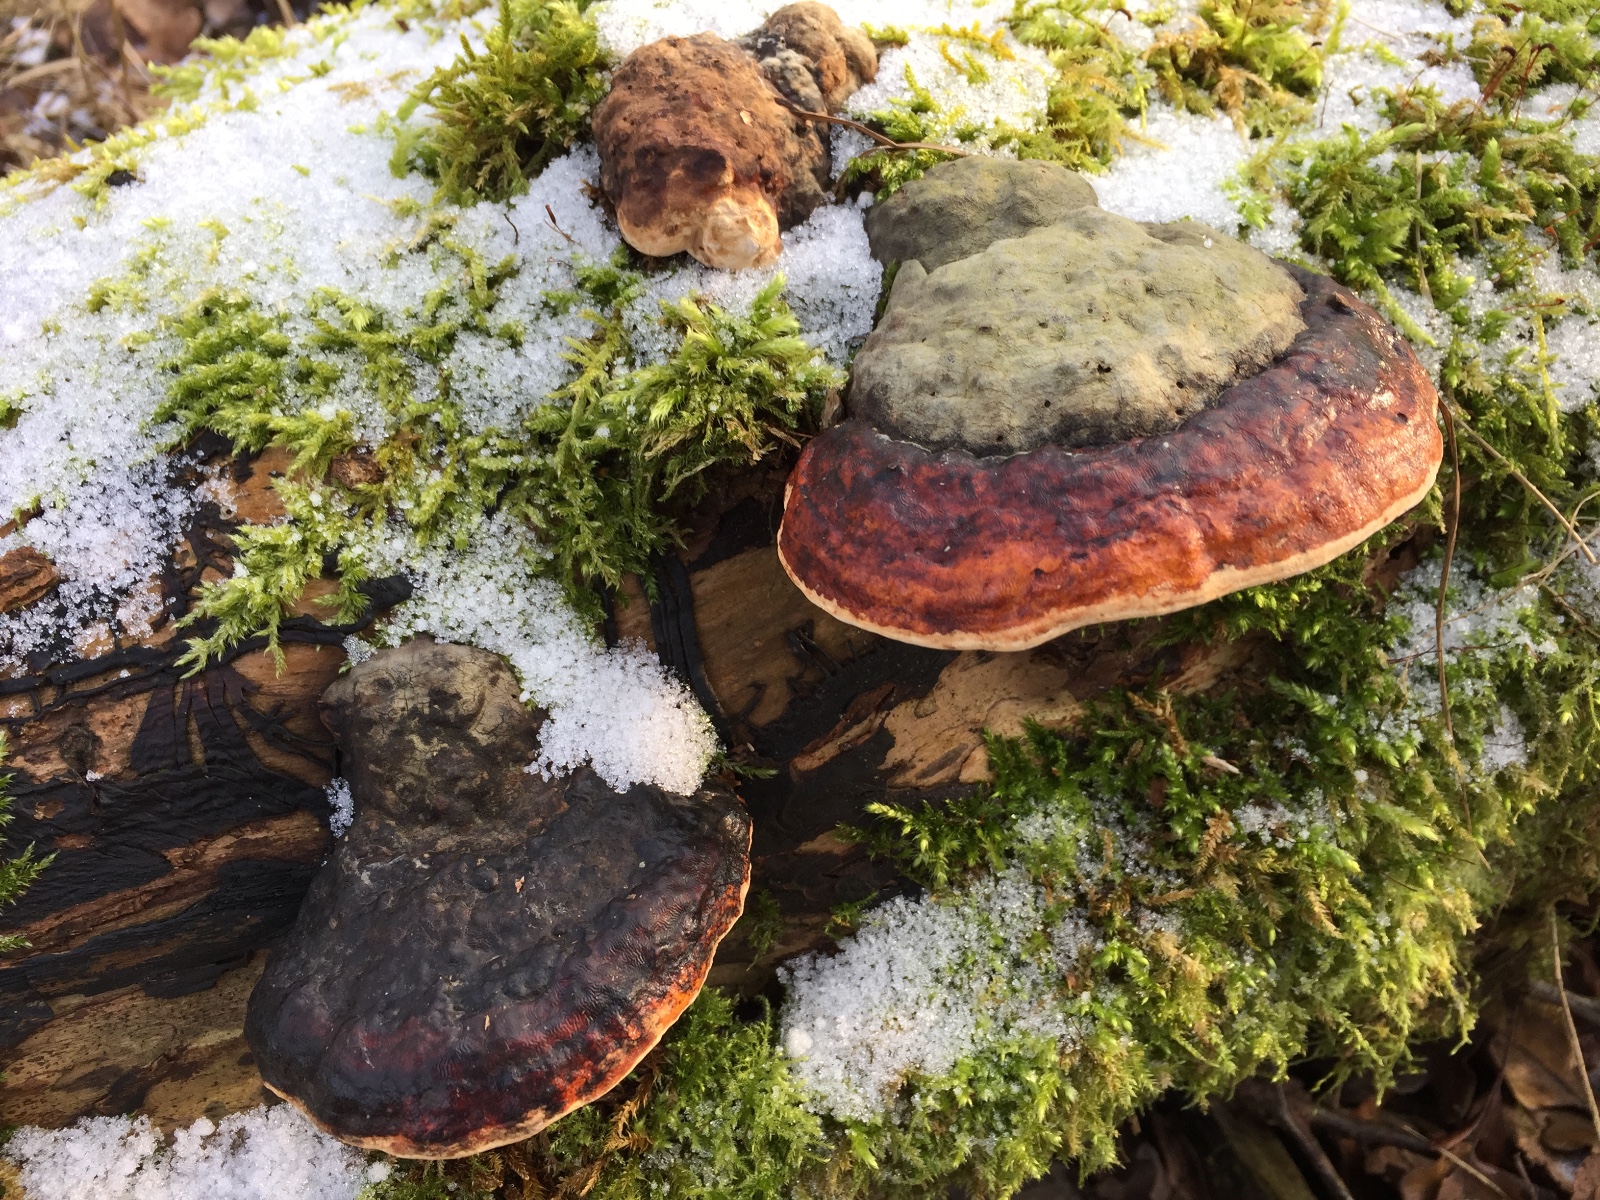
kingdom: Fungi
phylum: Basidiomycota
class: Agaricomycetes
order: Polyporales
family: Fomitopsidaceae
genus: Fomitopsis
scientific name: Fomitopsis pinicola
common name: randbæltet hovporesvamp
